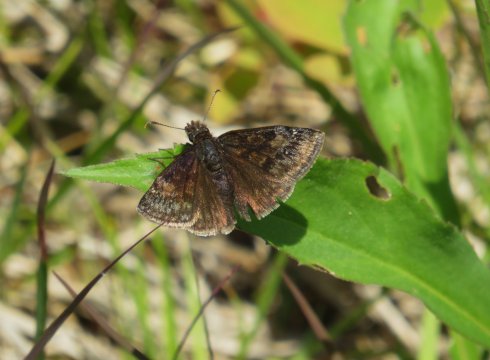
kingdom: Animalia
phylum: Arthropoda
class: Insecta
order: Lepidoptera
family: Hesperiidae
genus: Gesta
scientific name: Gesta
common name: Juvenal's Duskywing
